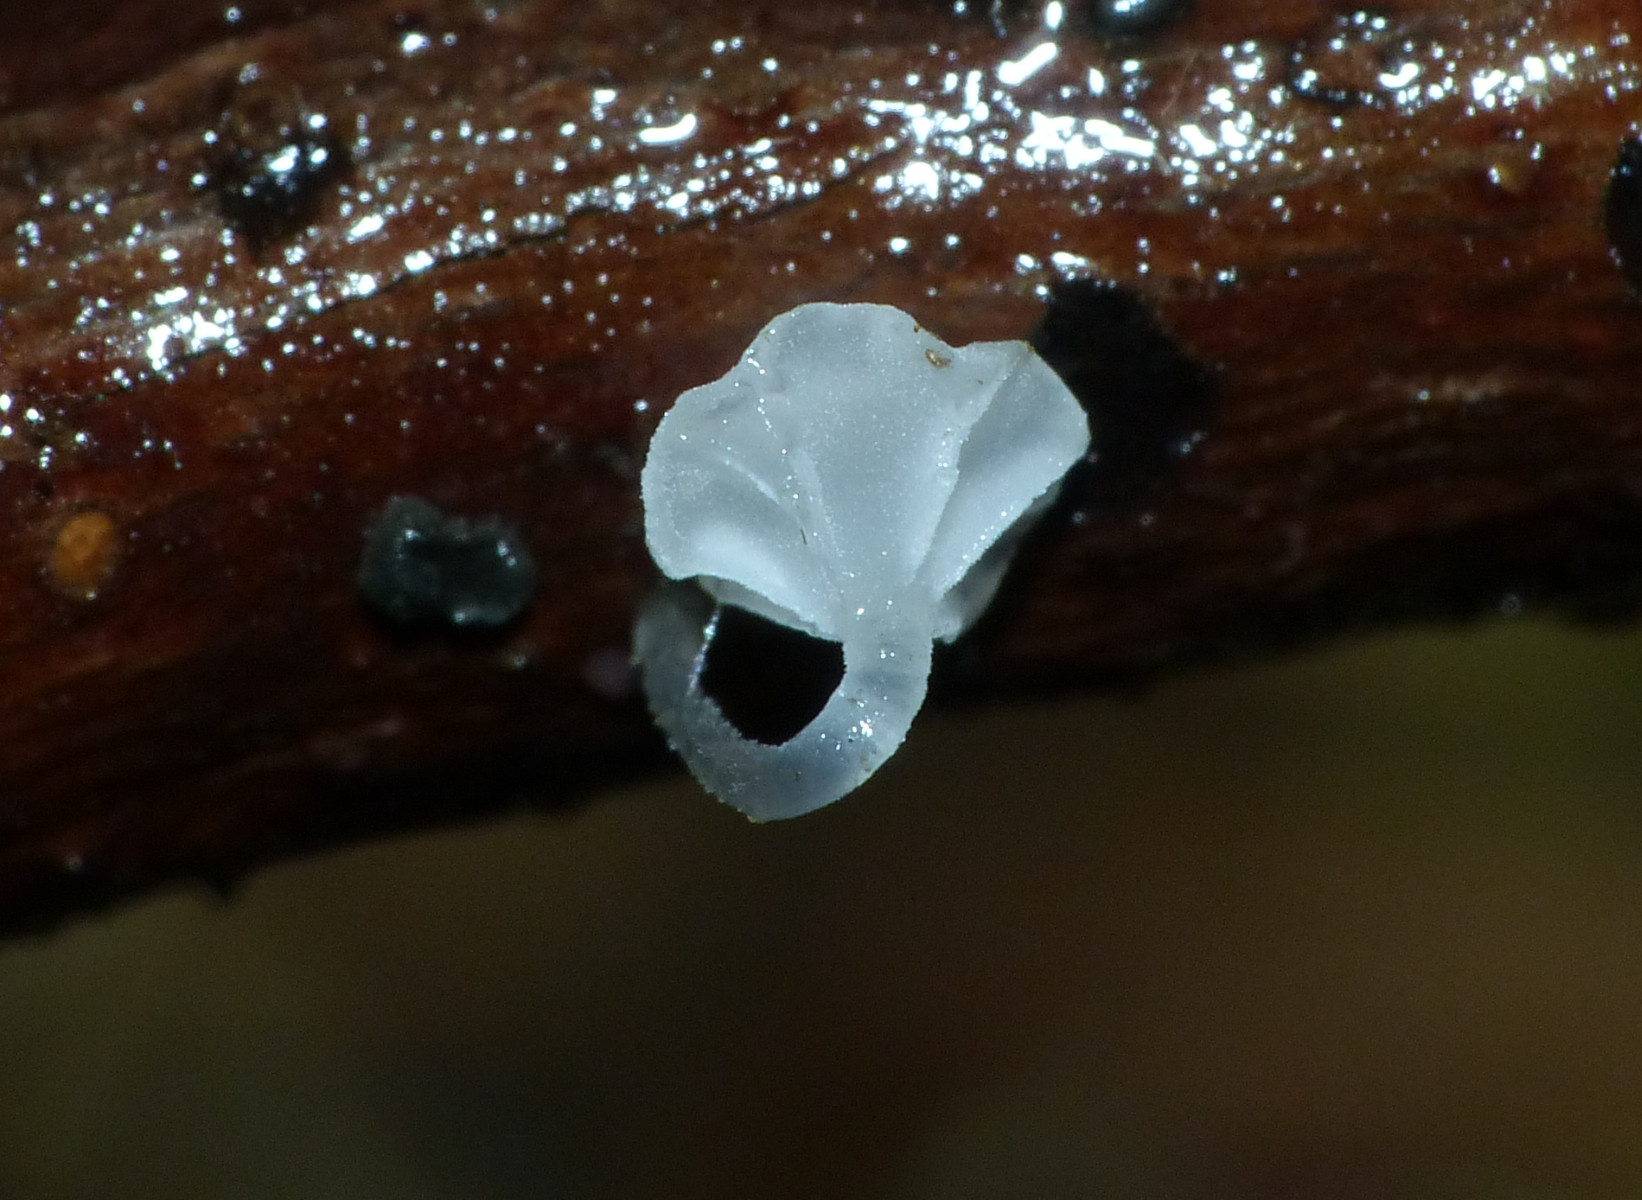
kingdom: Fungi
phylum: Basidiomycota
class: Agaricomycetes
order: Agaricales
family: Porotheleaceae
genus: Phloeomana
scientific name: Phloeomana speirea
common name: kvist-huesvamp
